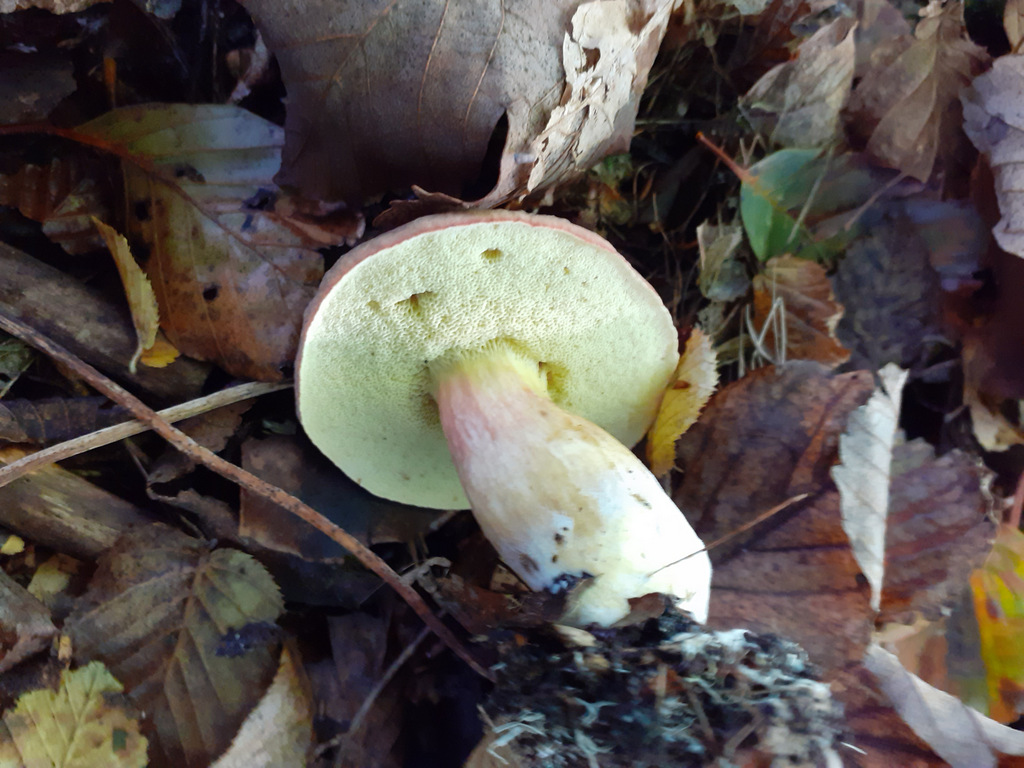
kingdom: Fungi
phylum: Basidiomycota
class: Agaricomycetes
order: Boletales
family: Boletaceae
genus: Xerocomellus
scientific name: Xerocomellus pruinatus
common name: dugget rørhat
